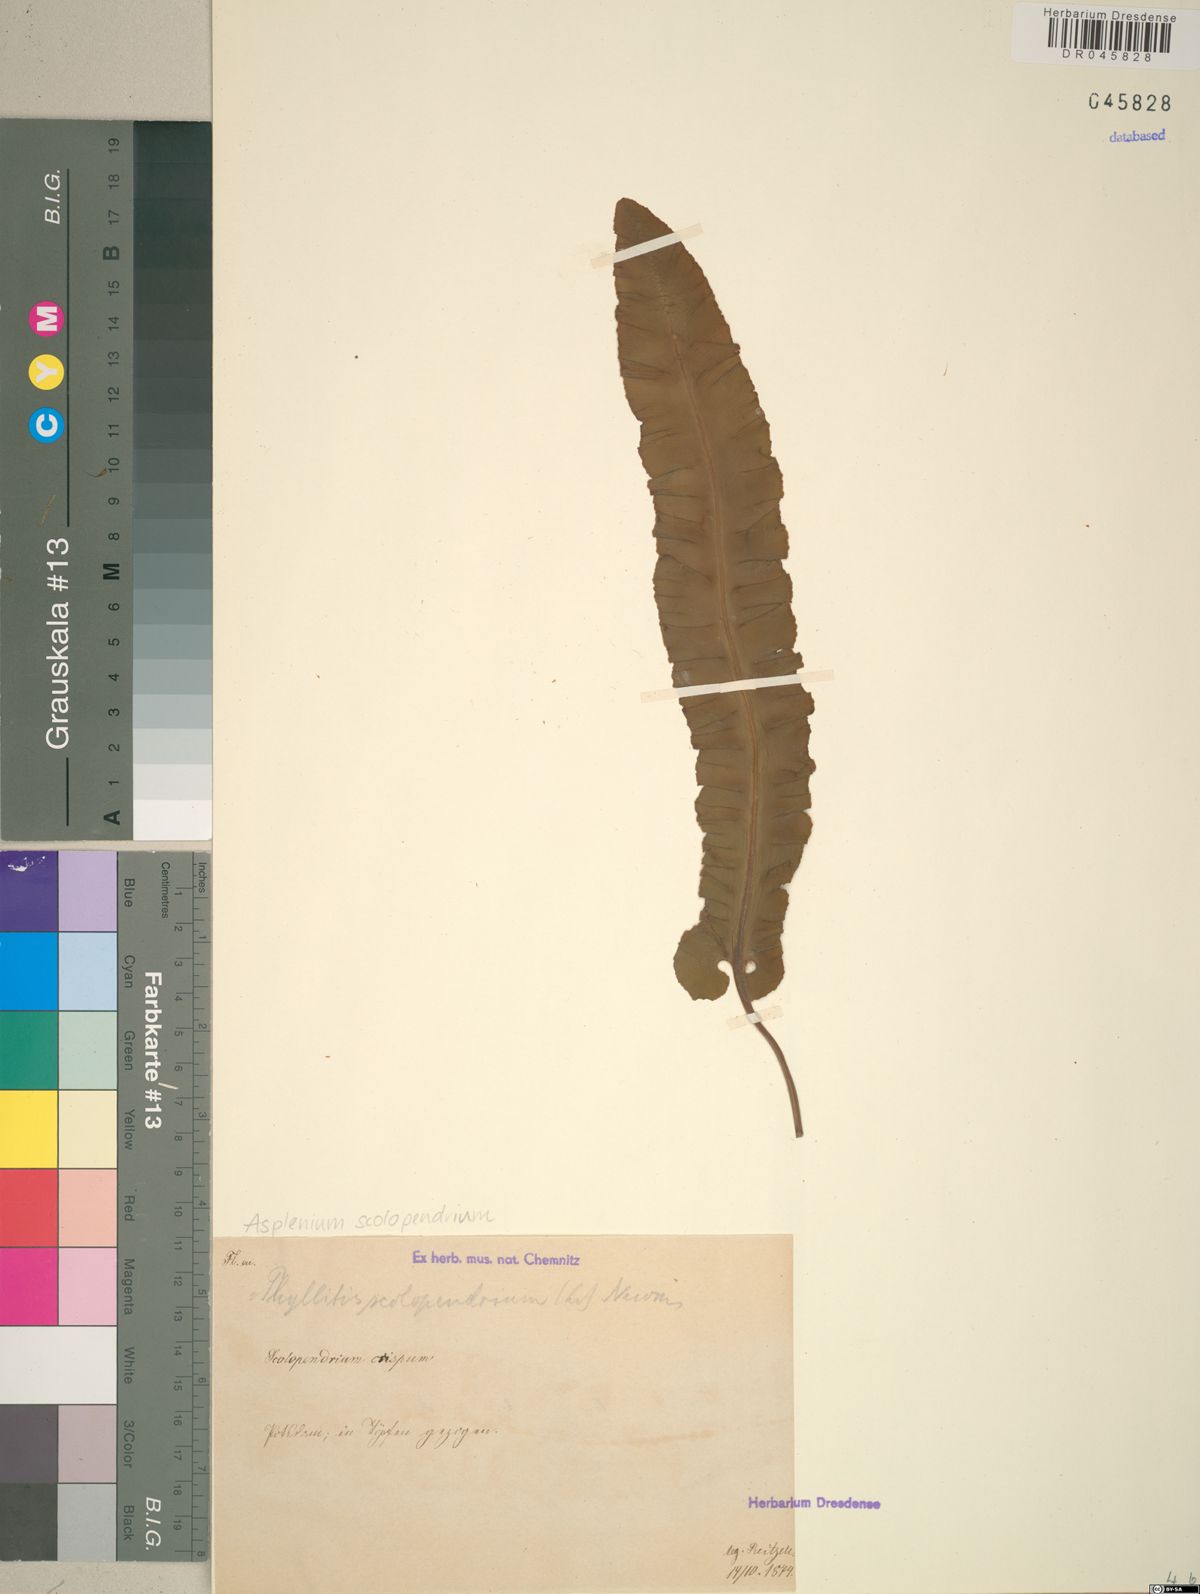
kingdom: Plantae
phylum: Tracheophyta
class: Polypodiopsida
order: Polypodiales
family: Aspleniaceae
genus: Asplenium
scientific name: Asplenium scolopendrium
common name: Hart's-tongue fern
